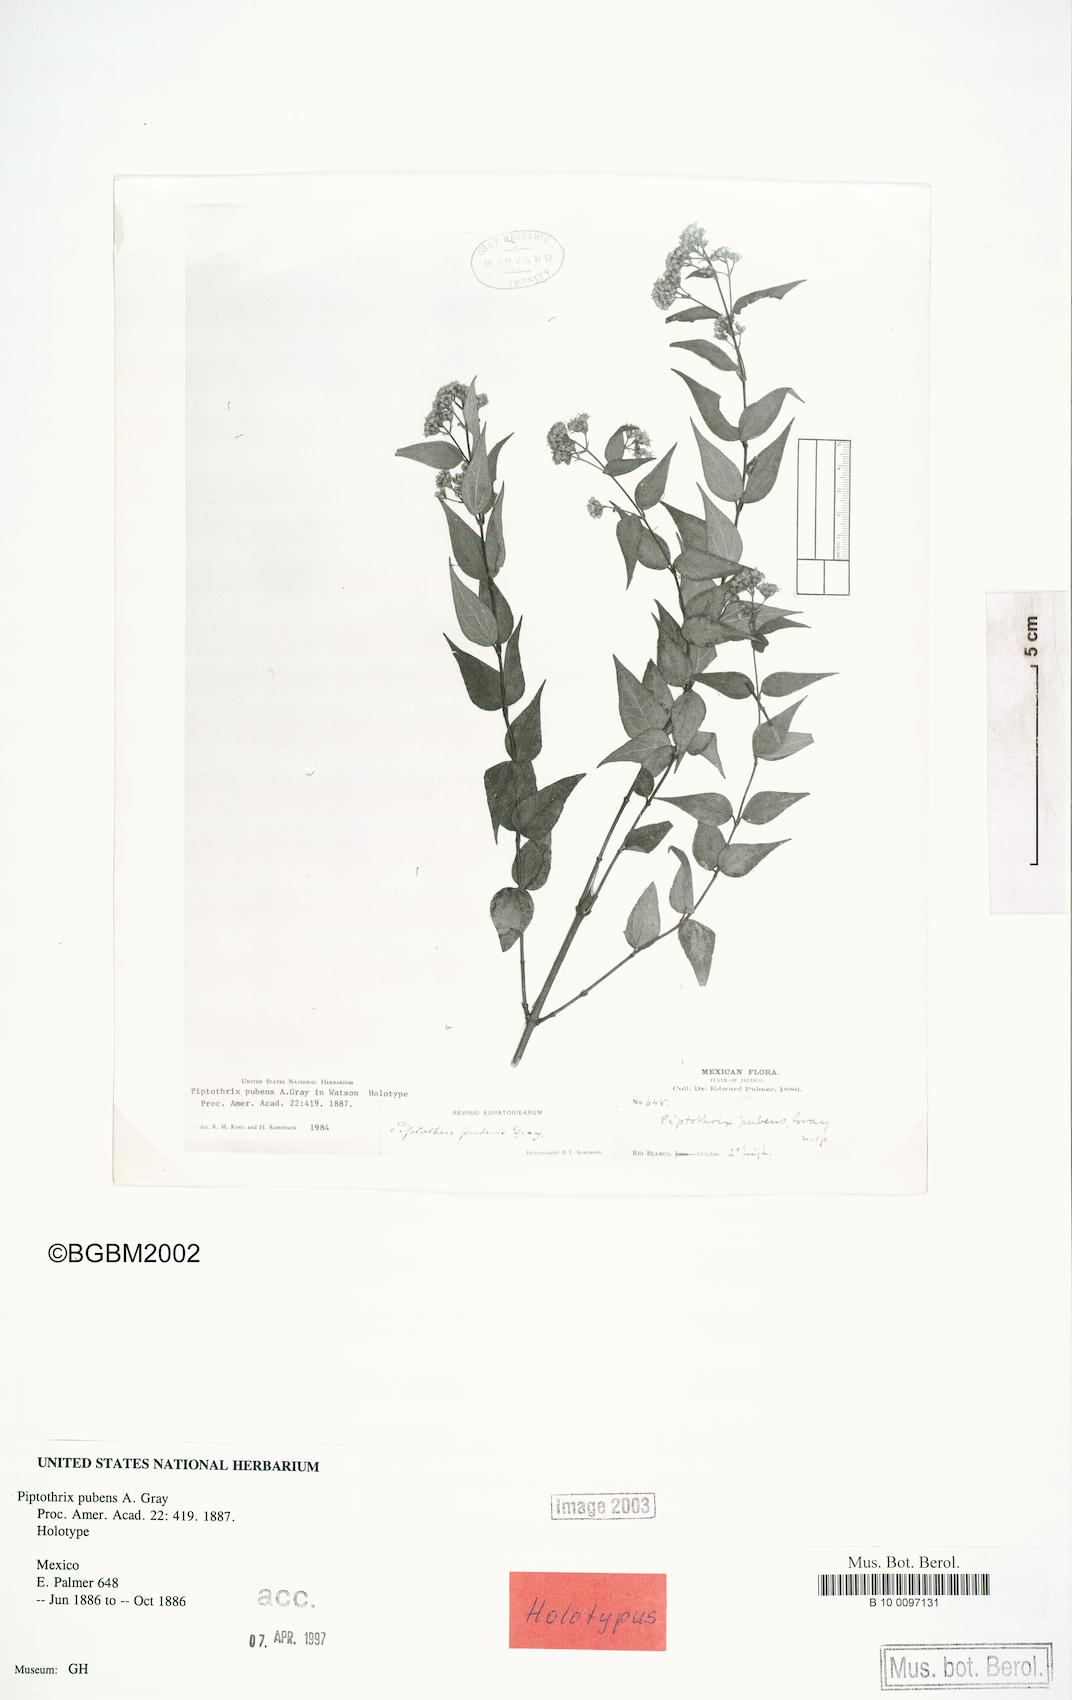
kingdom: Plantae
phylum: Tracheophyta
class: Magnoliopsida
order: Asterales
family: Asteraceae
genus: Ageratina
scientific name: Ageratina palmeri
